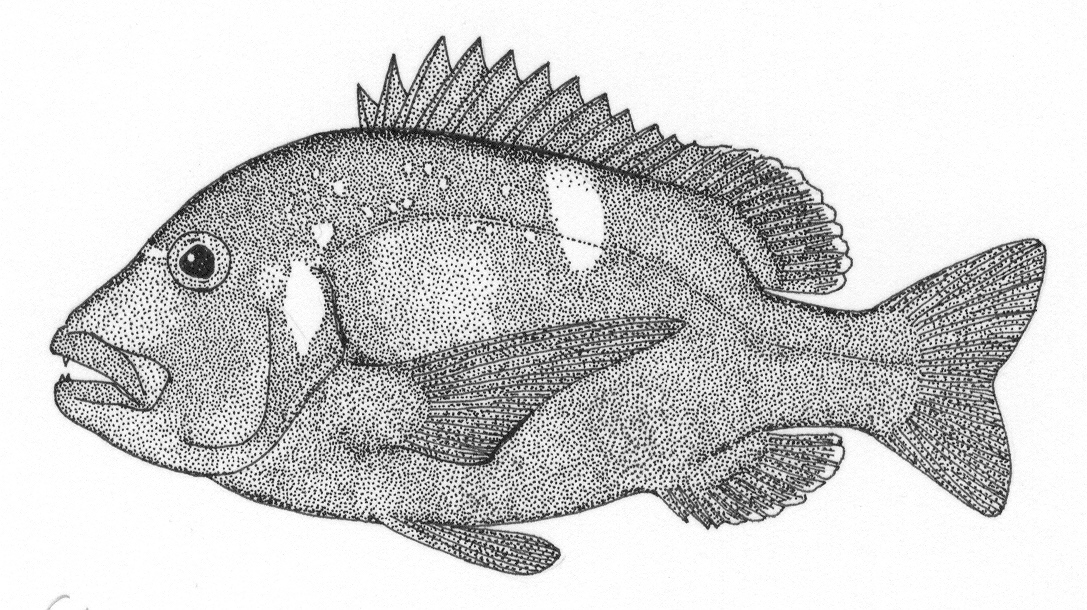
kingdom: Animalia
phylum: Chordata
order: Perciformes
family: Sparidae
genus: Chrysoblephus
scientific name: Chrysoblephus laticeps
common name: Roman seabream
